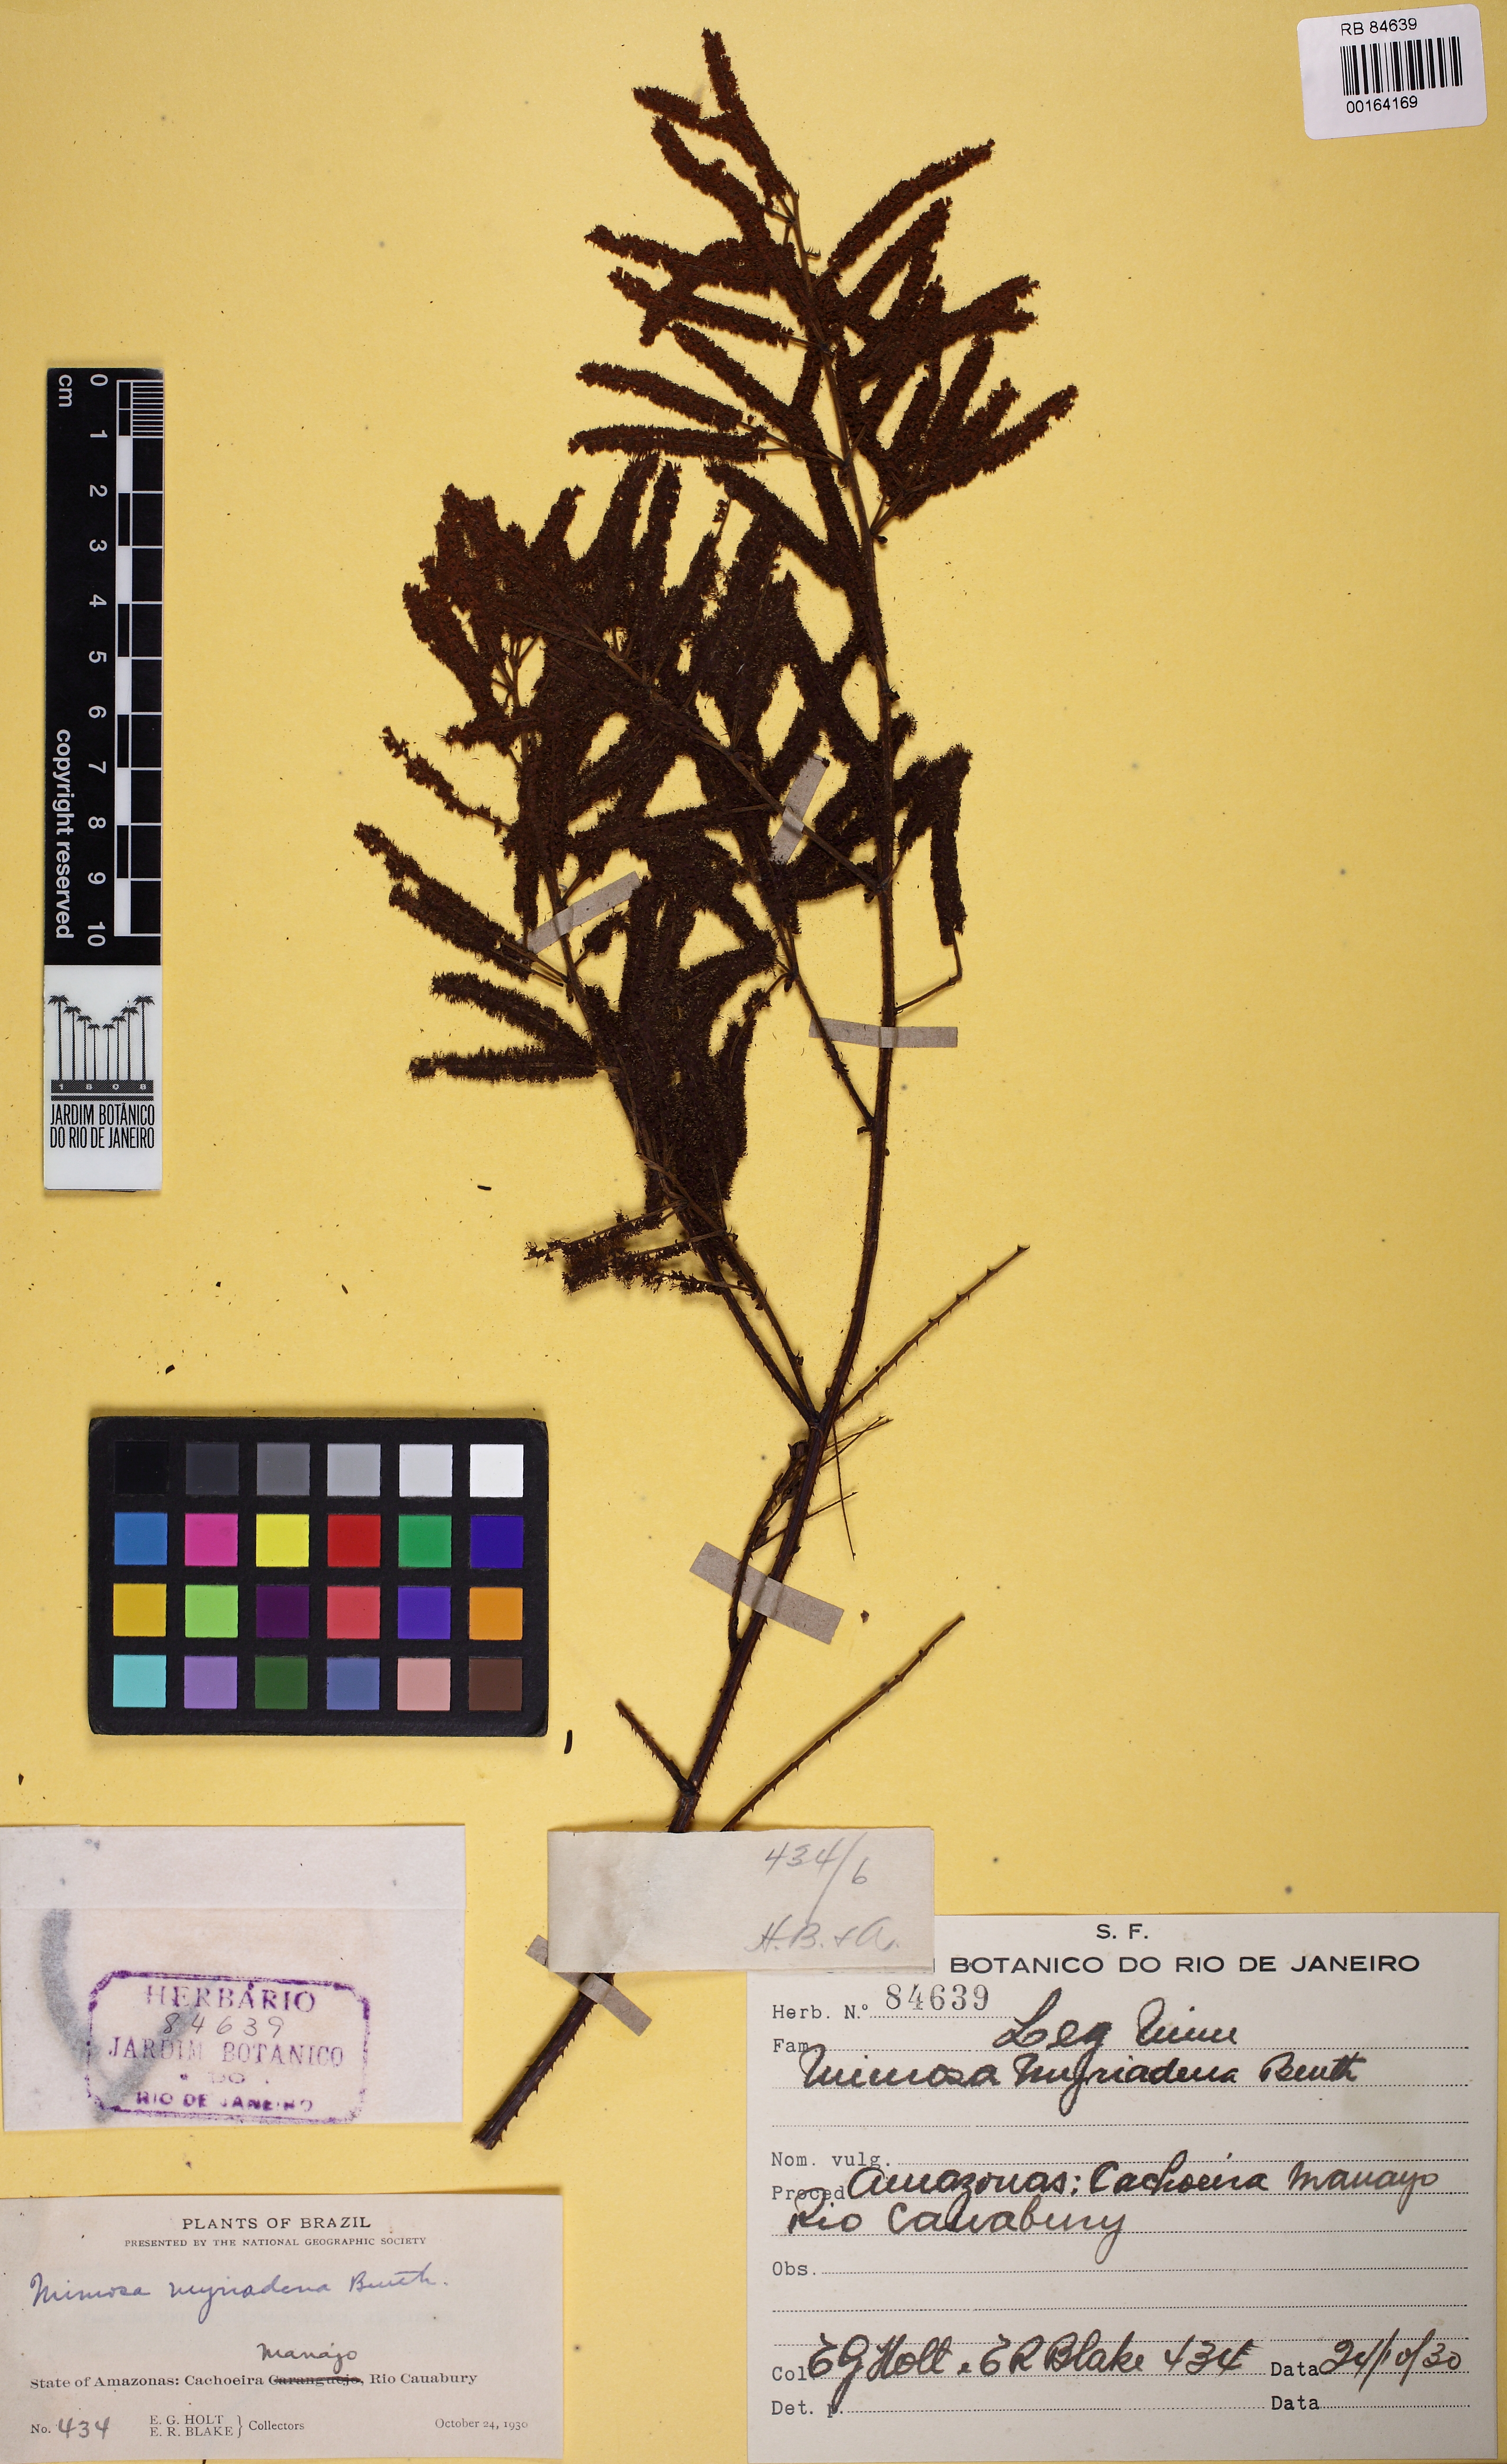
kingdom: Plantae
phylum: Tracheophyta
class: Magnoliopsida
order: Fabales
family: Fabaceae
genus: Mimosa
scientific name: Mimosa myriadenia
